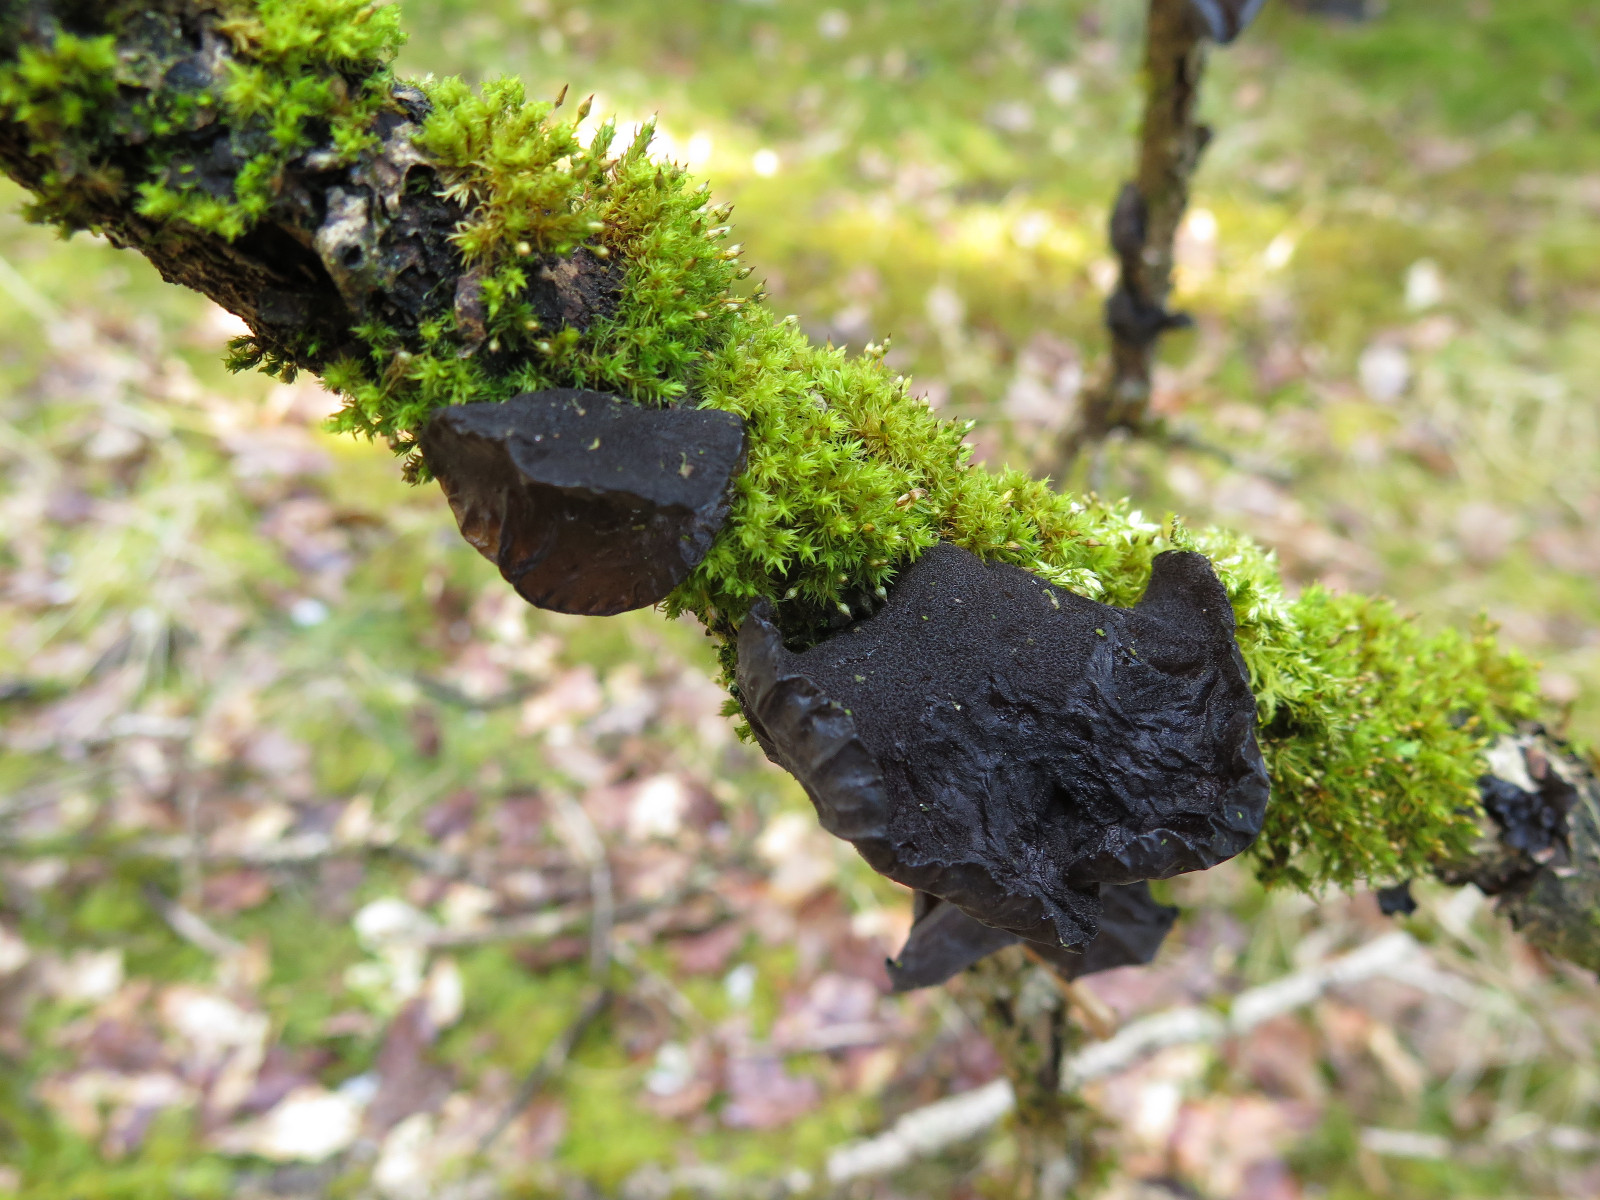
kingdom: Fungi
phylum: Basidiomycota
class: Agaricomycetes
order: Auriculariales
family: Auriculariaceae
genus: Exidia
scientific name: Exidia glandulosa
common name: ege-bævretop
